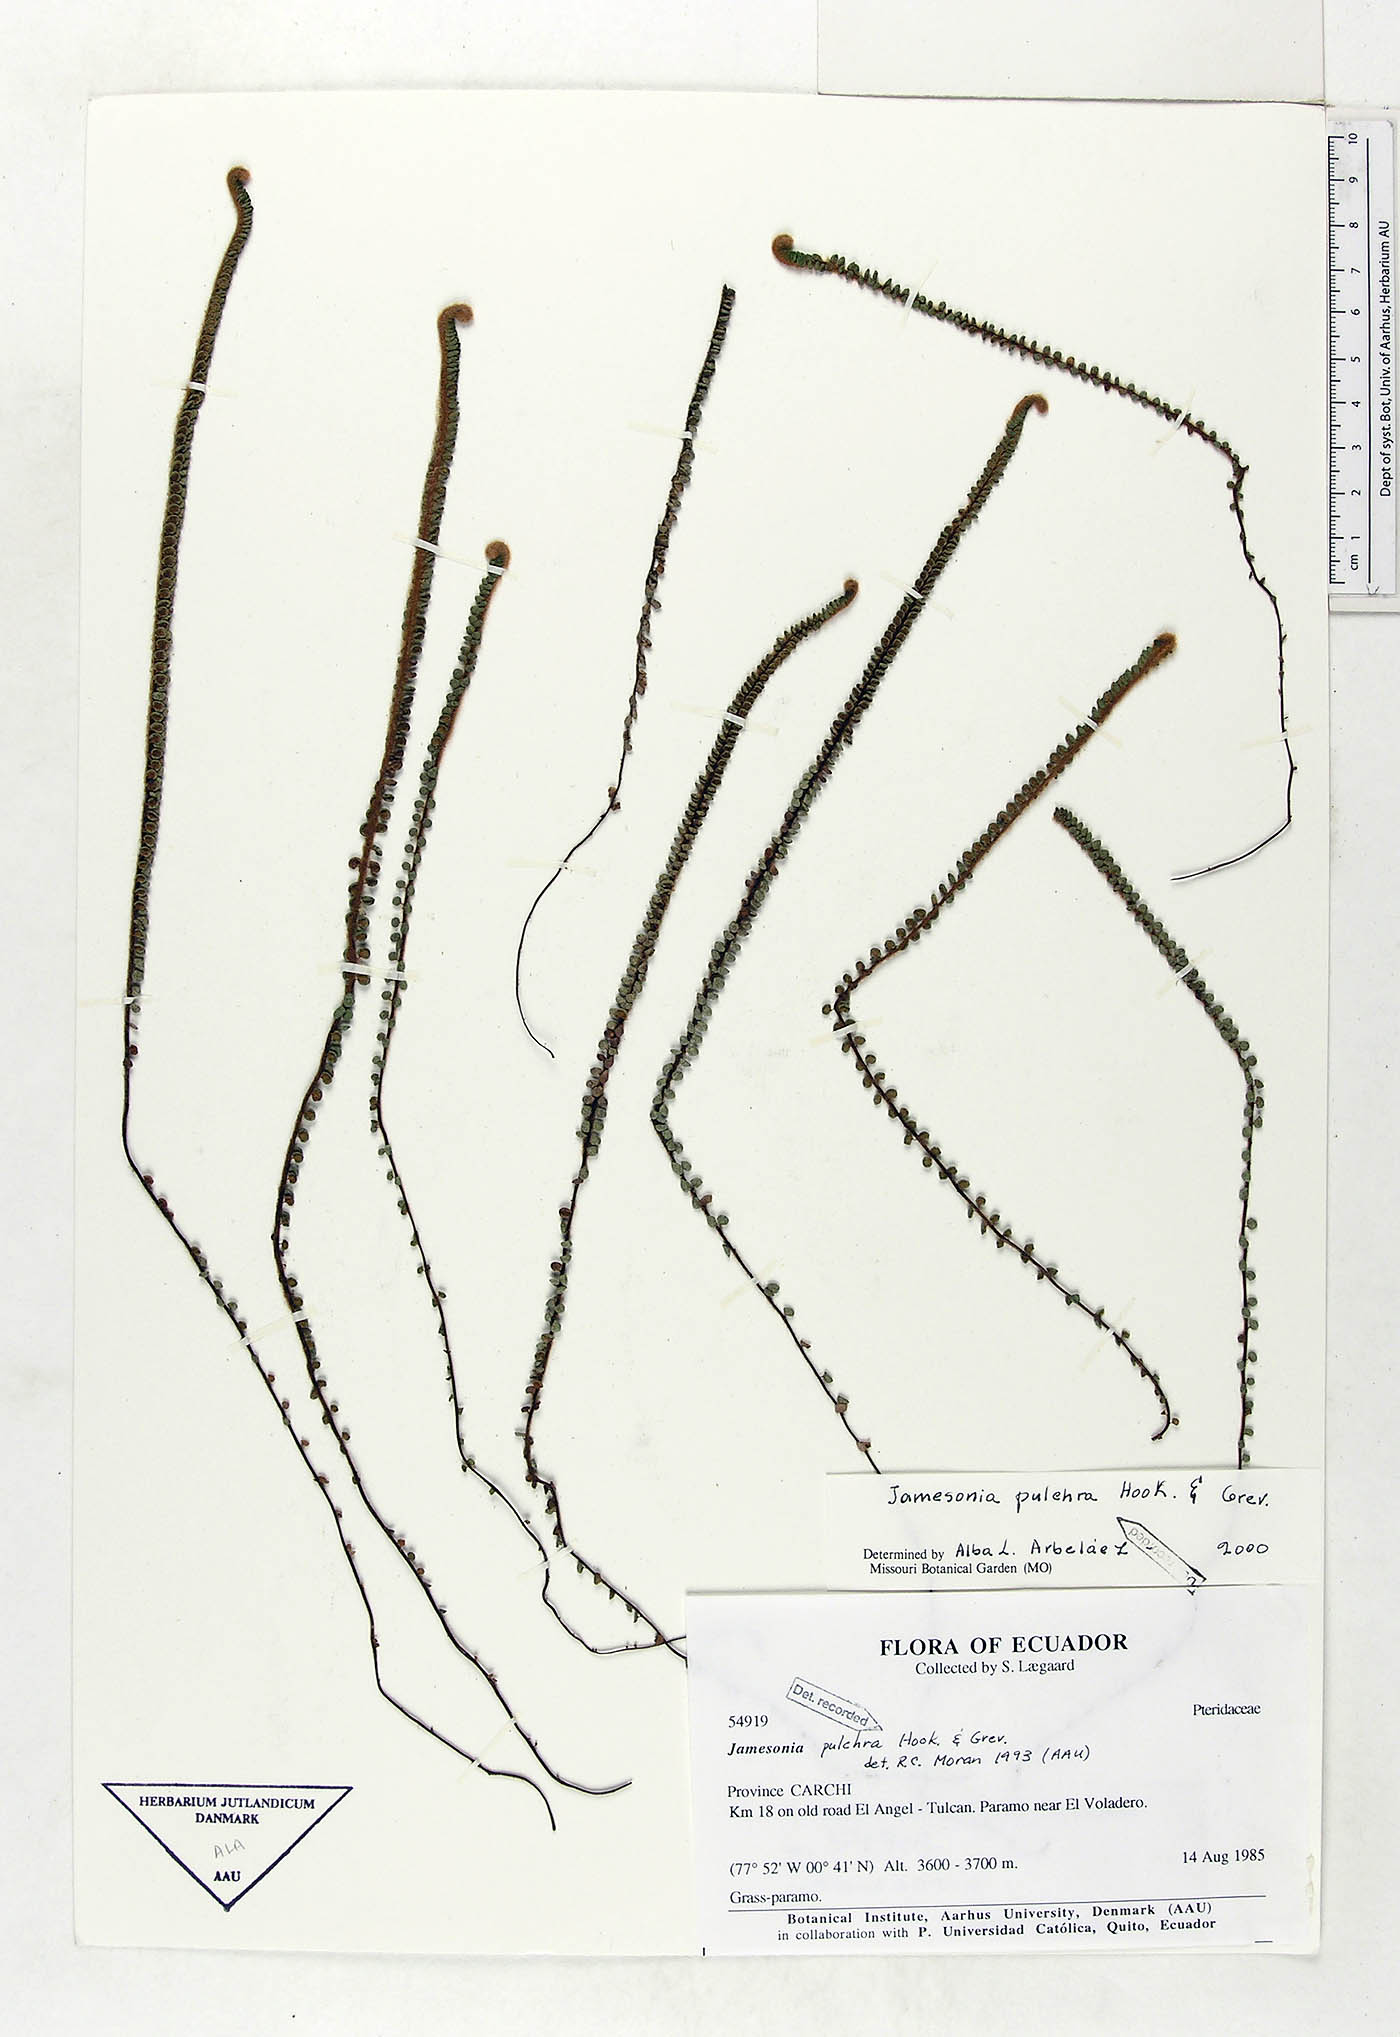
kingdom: Plantae
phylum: Tracheophyta
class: Polypodiopsida
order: Polypodiales
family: Pteridaceae
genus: Jamesonia
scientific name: Jamesonia pulchra
